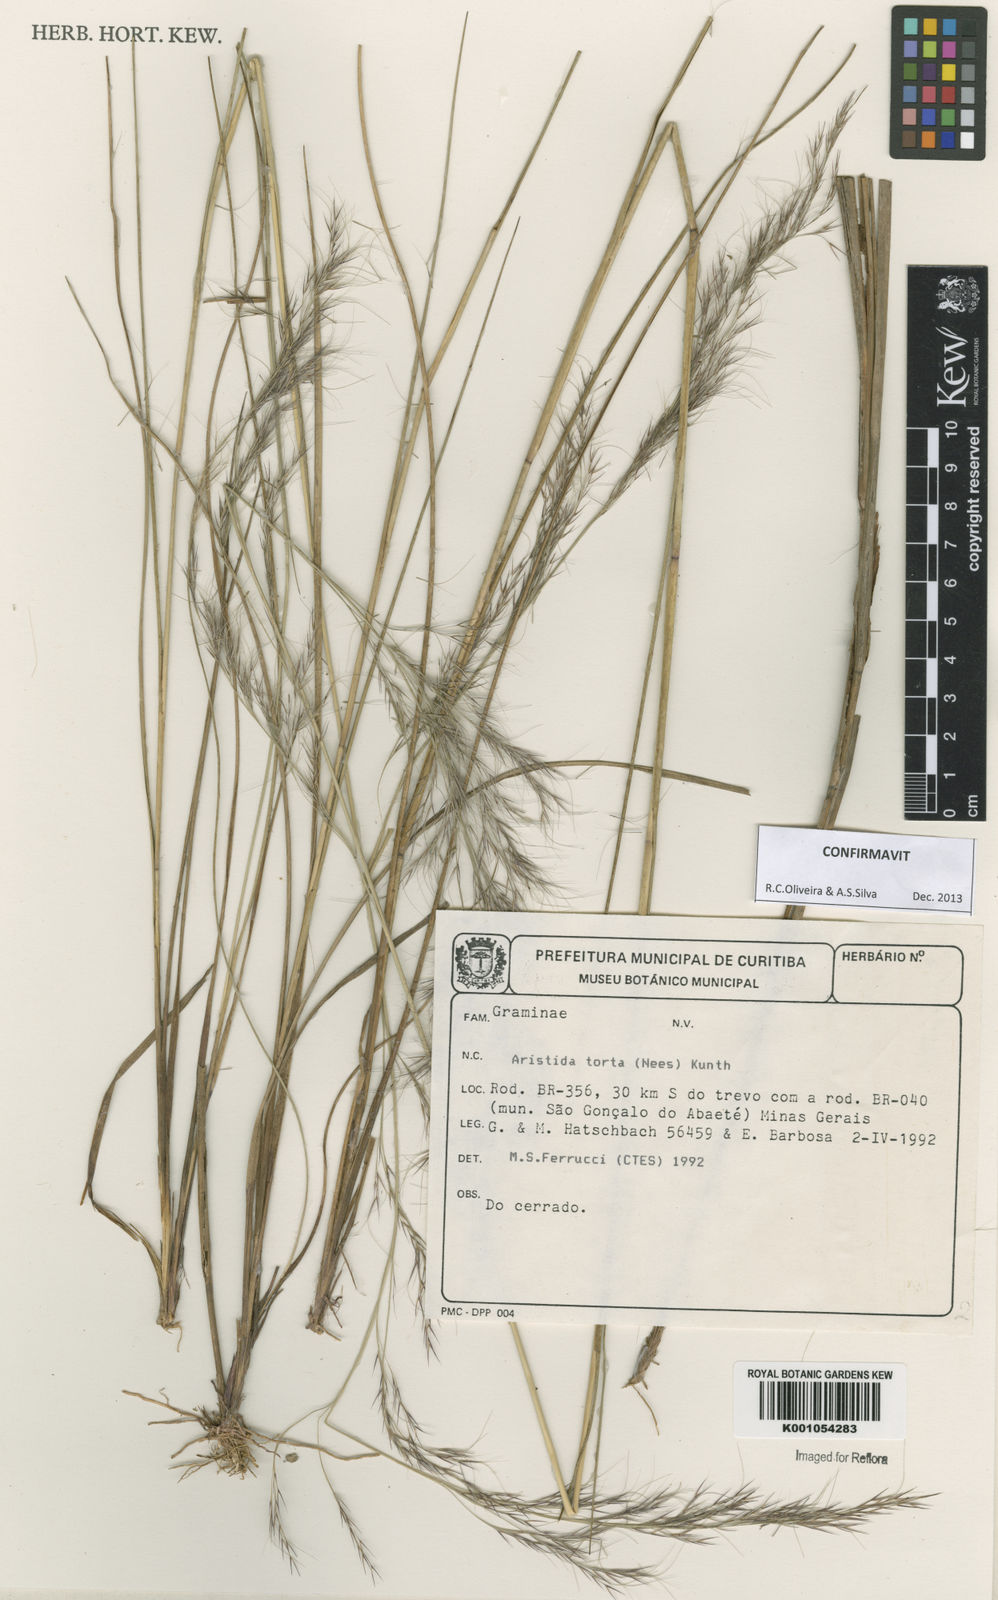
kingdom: Plantae
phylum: Tracheophyta
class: Liliopsida
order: Poales
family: Poaceae
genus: Aristida
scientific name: Aristida torta
